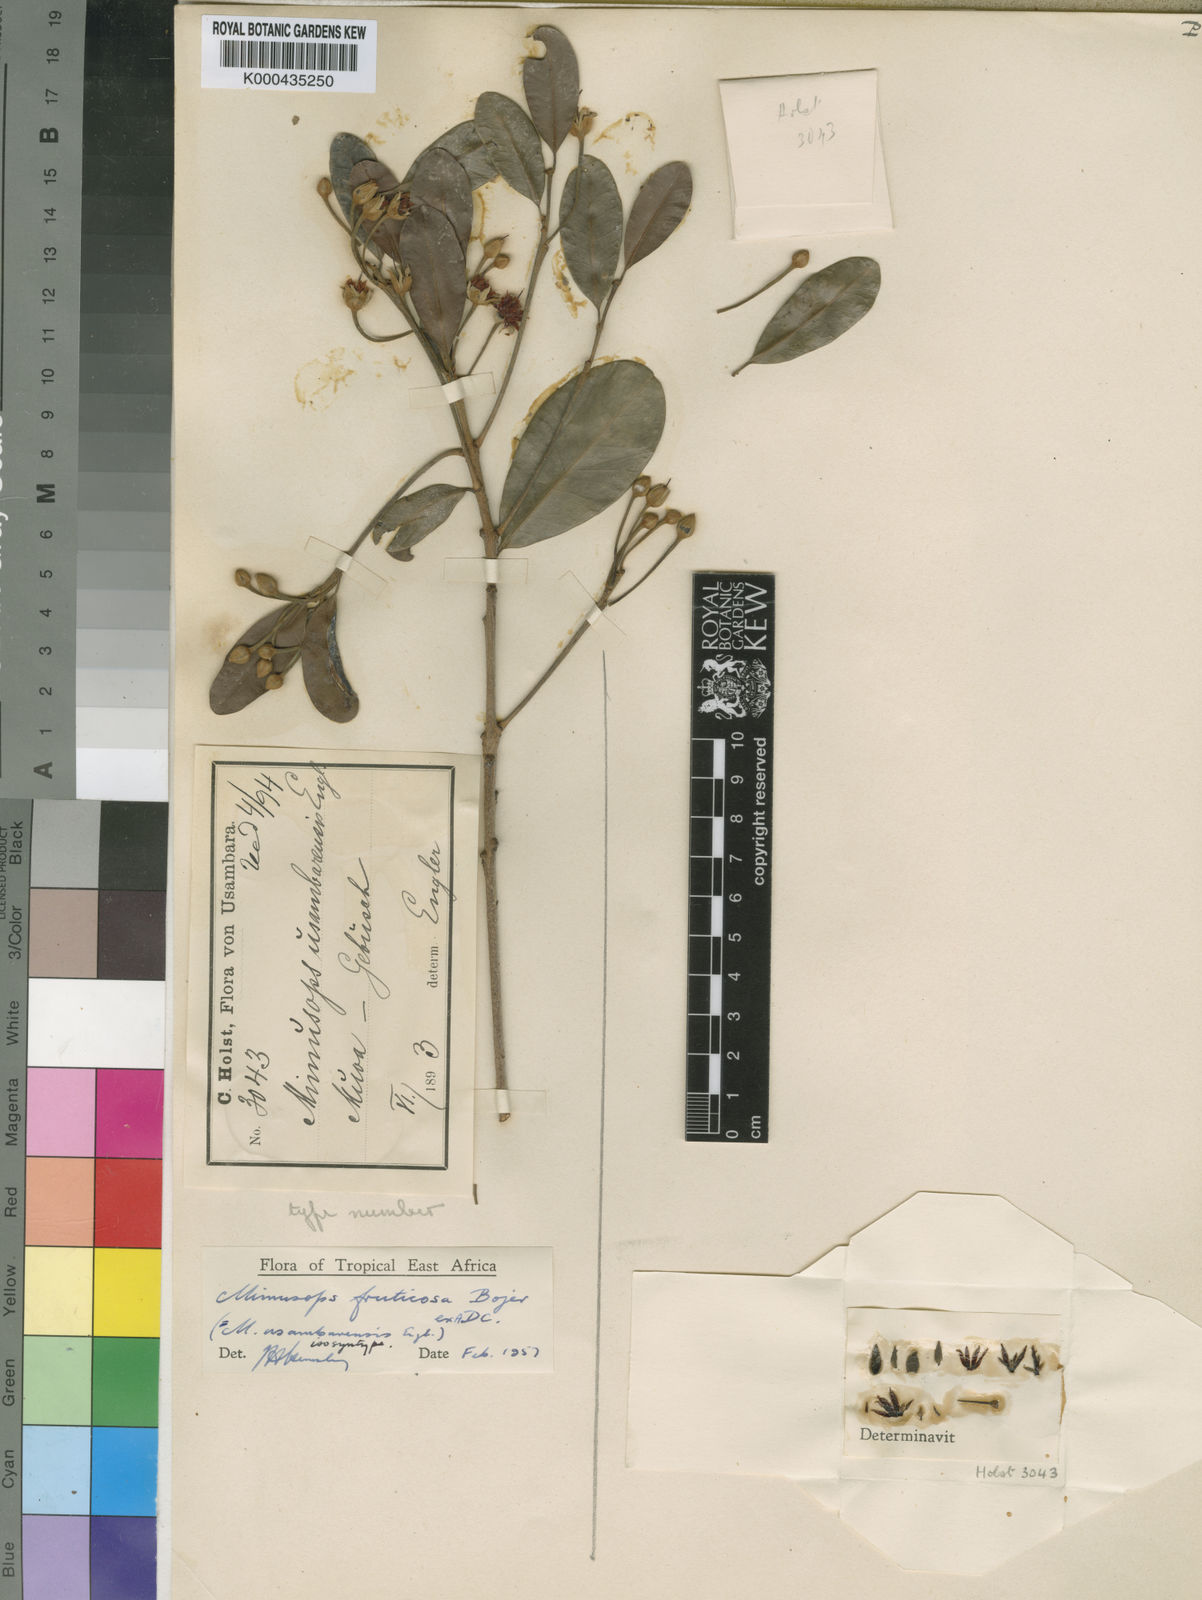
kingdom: Plantae
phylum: Tracheophyta
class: Magnoliopsida
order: Ericales
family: Sapotaceae
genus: Mimusops
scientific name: Mimusops penduliflora
